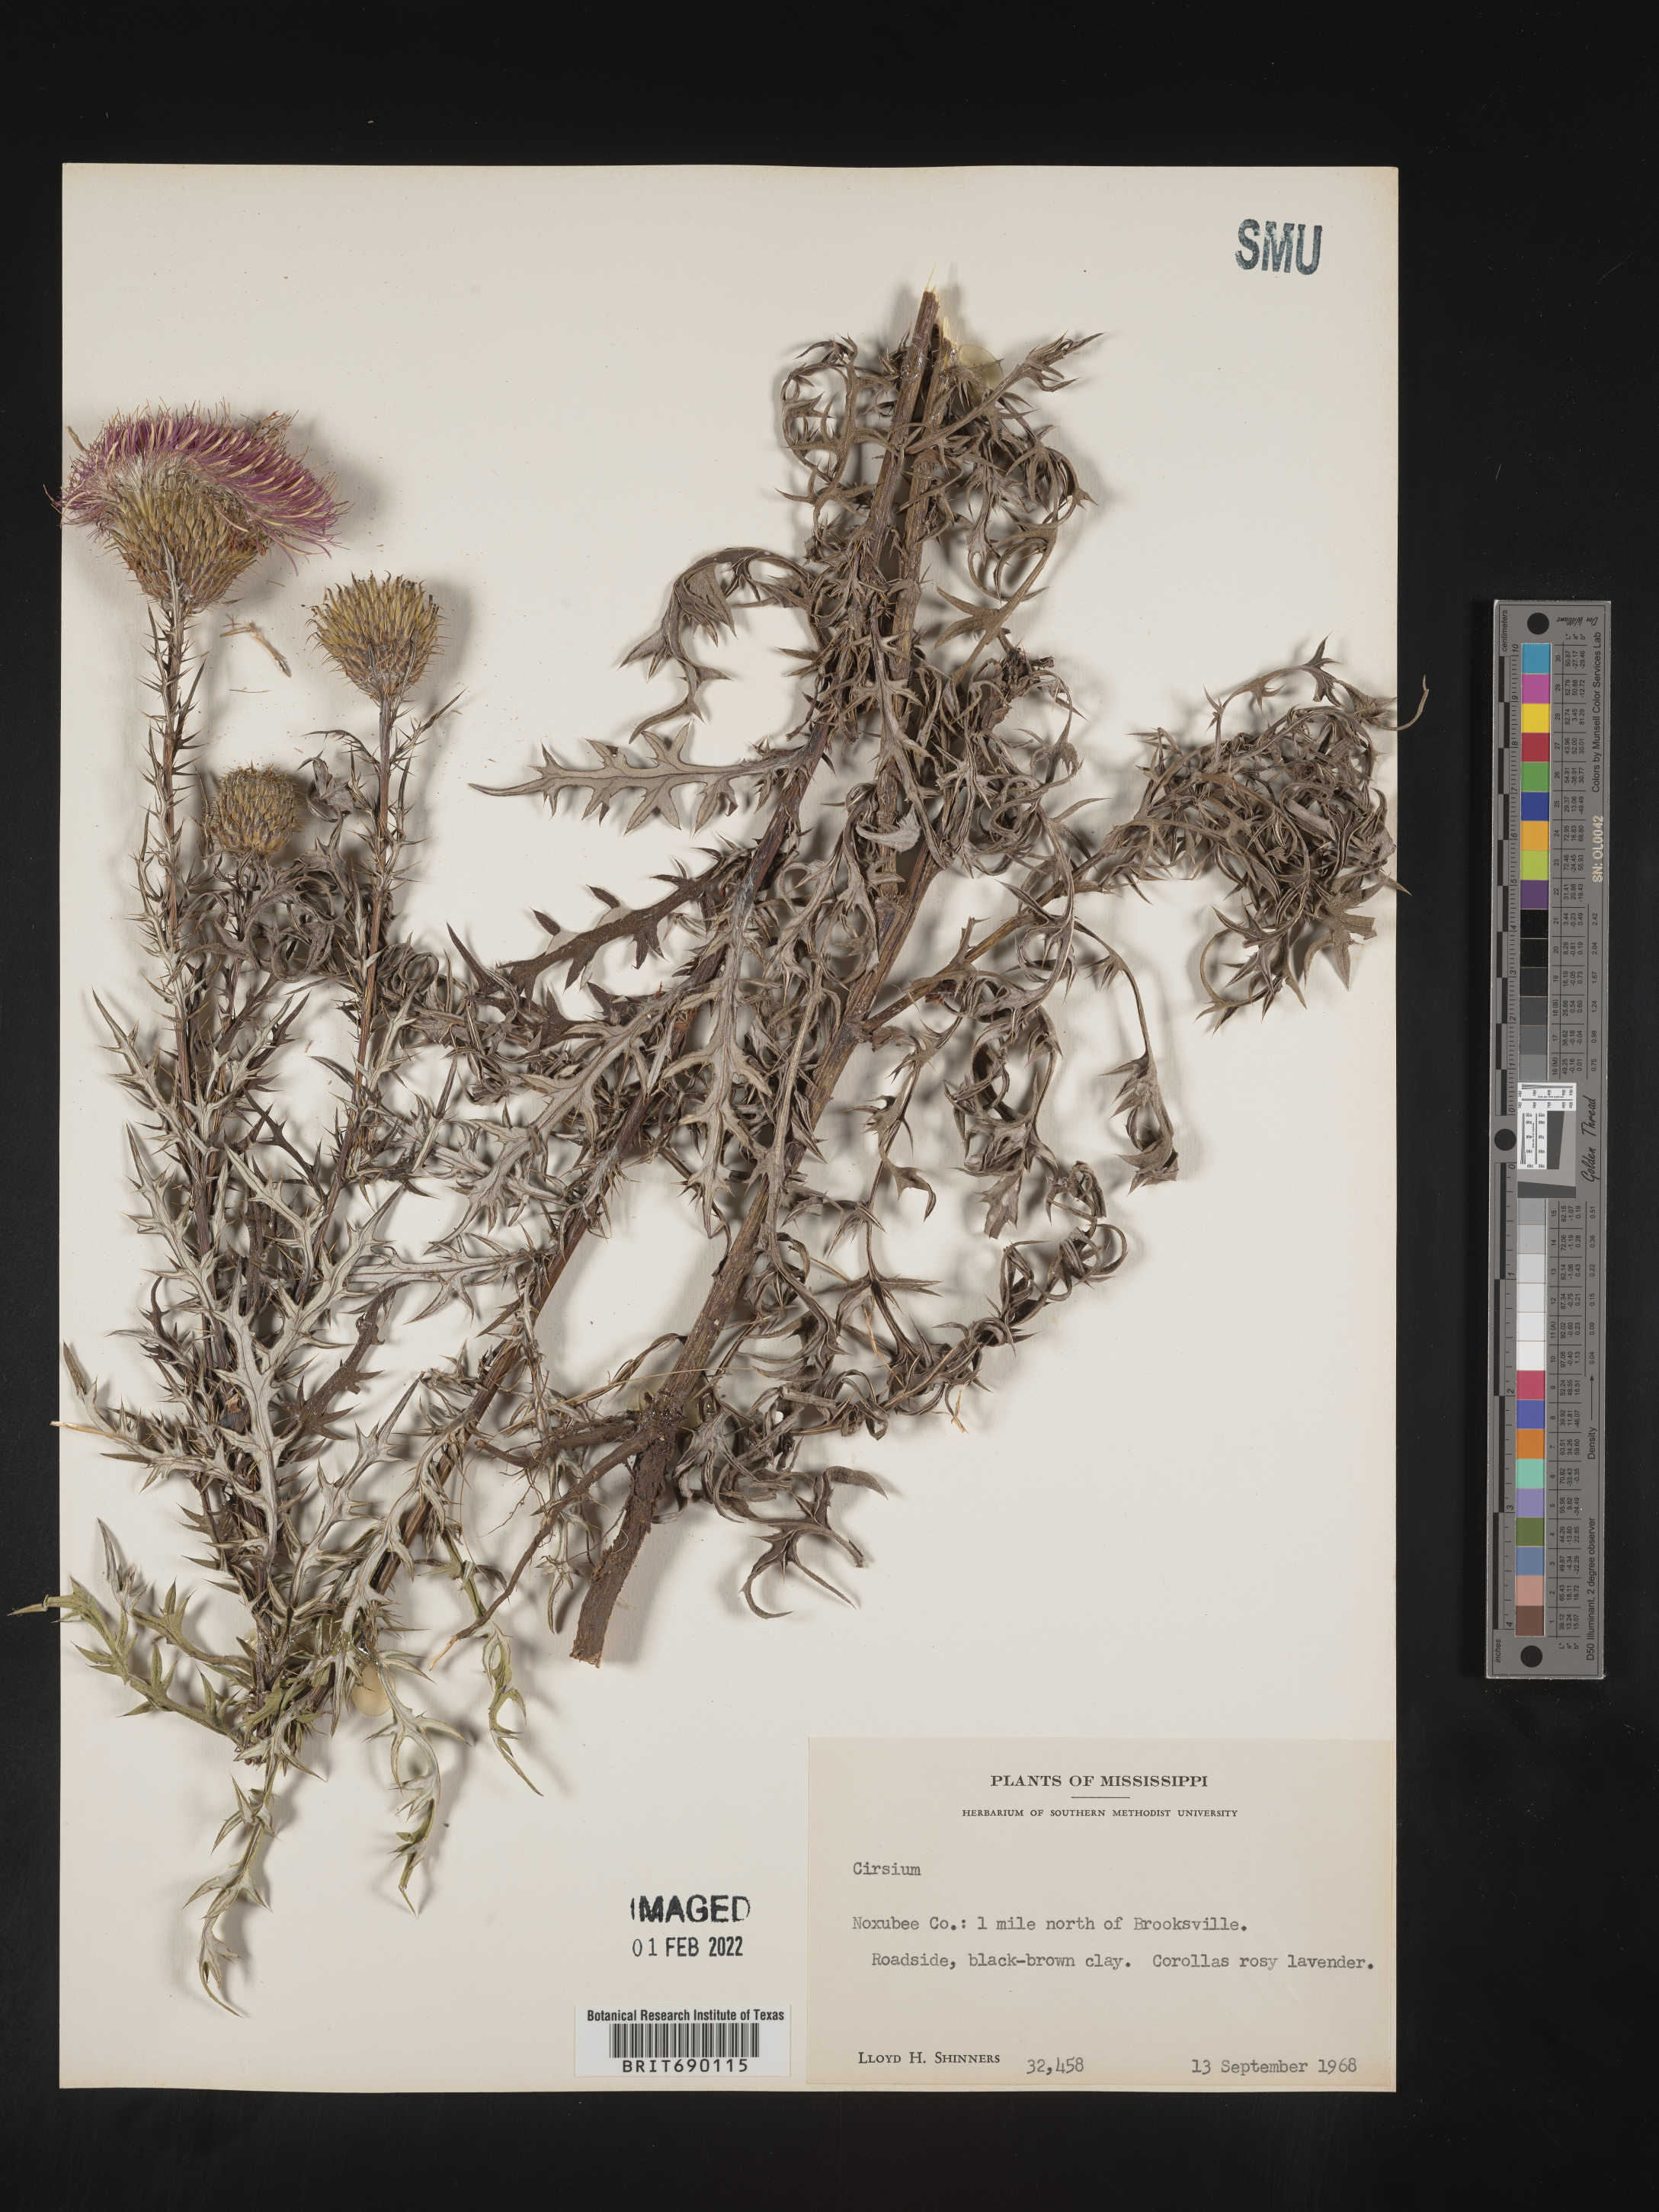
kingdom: Plantae
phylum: Tracheophyta
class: Magnoliopsida
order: Asterales
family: Asteraceae
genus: Cirsium
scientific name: Cirsium
